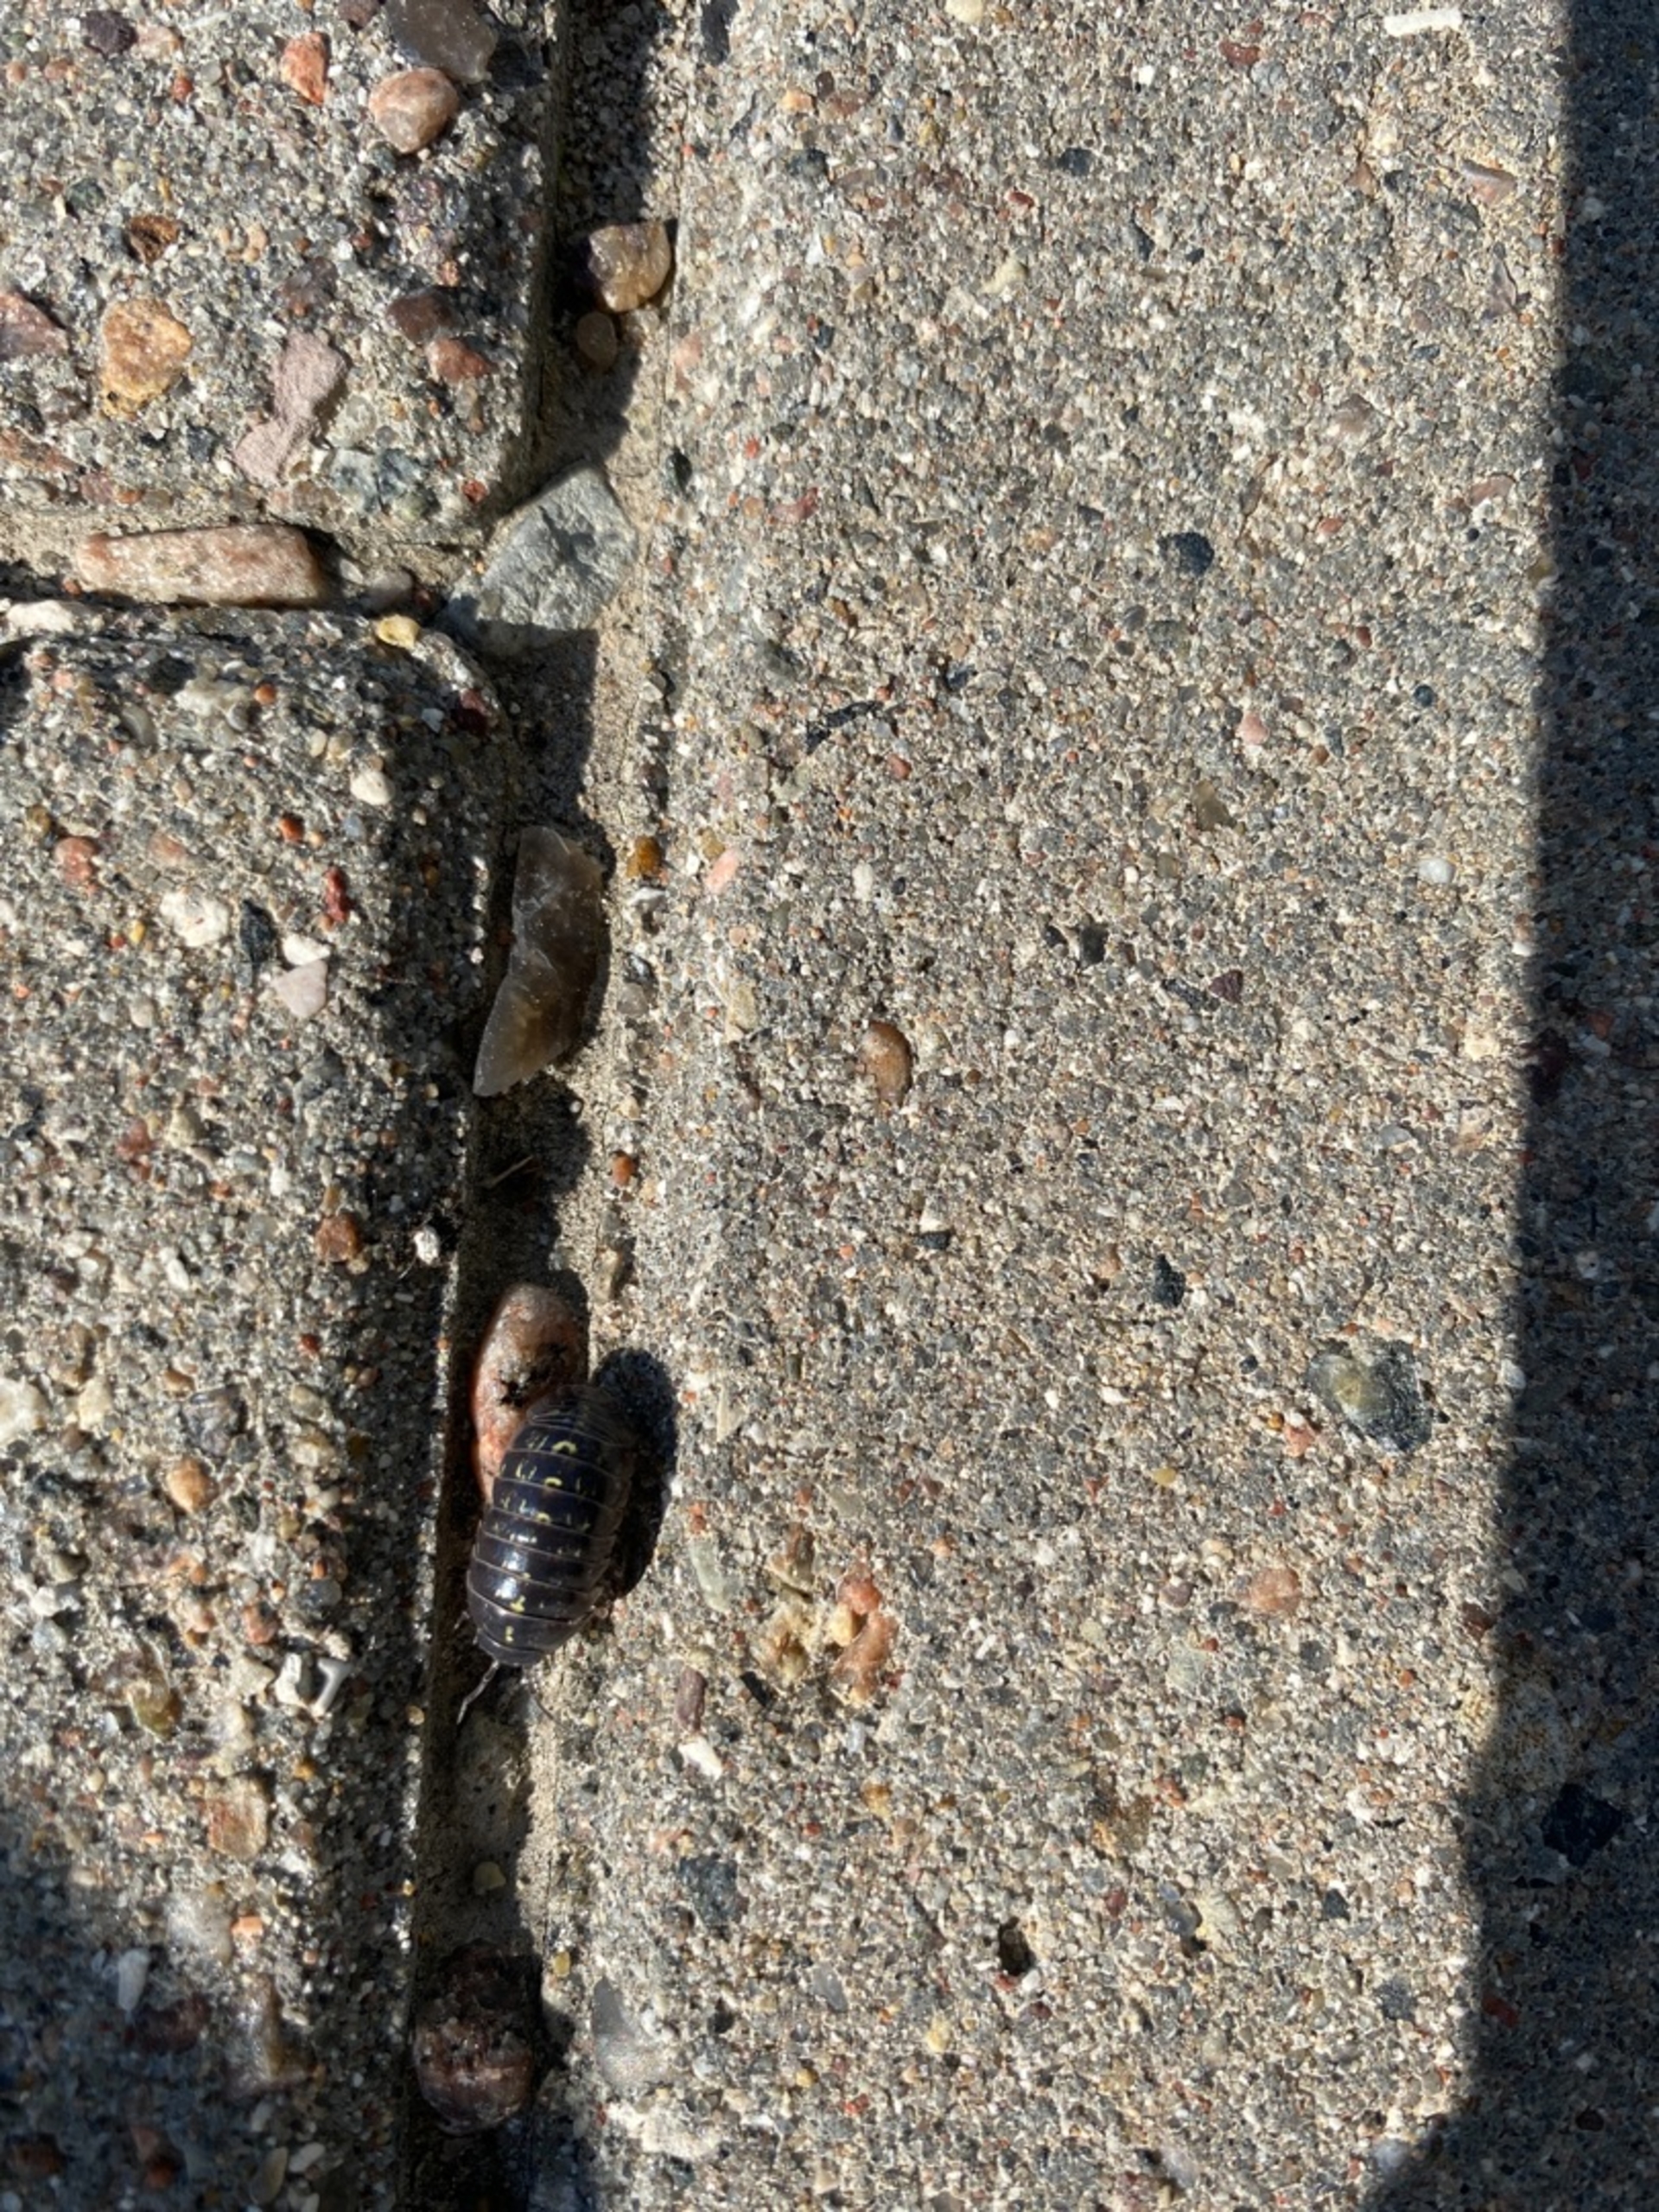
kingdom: Animalia
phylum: Arthropoda
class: Malacostraca
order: Isopoda
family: Armadillidiidae
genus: Armadillidium
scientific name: Armadillidium vulgare
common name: Almindelig kuglebænkebider
